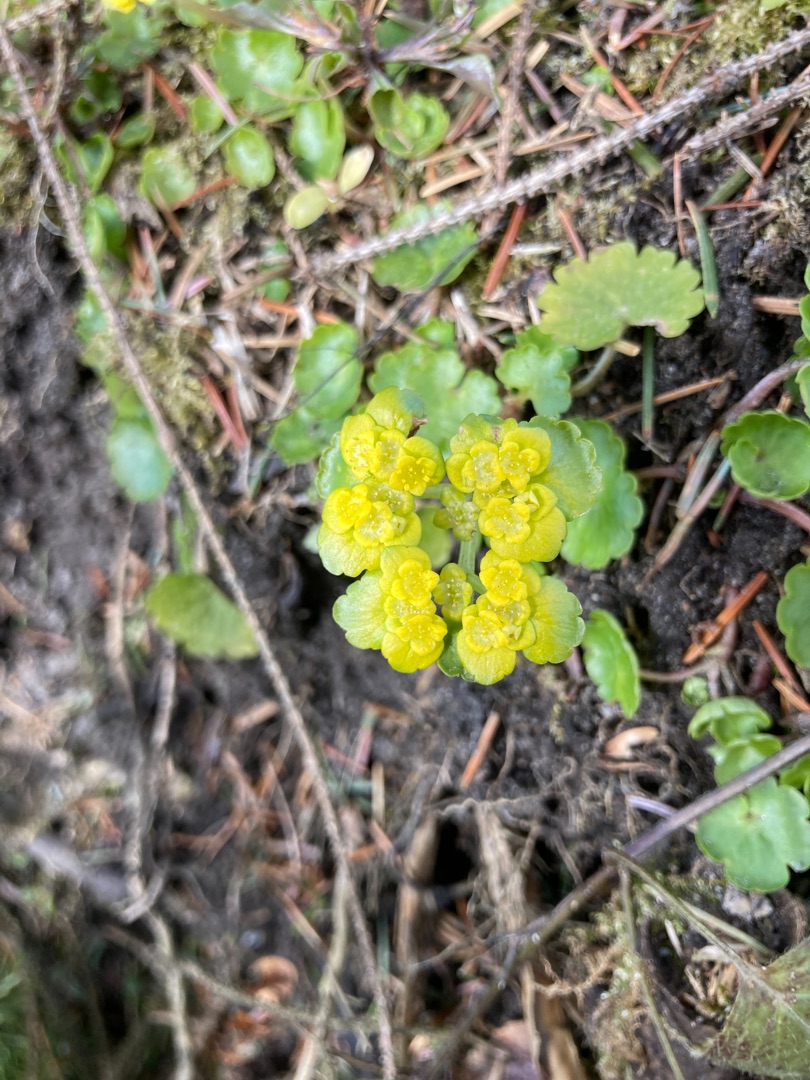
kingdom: Plantae
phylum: Tracheophyta
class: Magnoliopsida
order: Saxifragales
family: Saxifragaceae
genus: Chrysosplenium
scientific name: Chrysosplenium alternifolium
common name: Almindelig milturt
